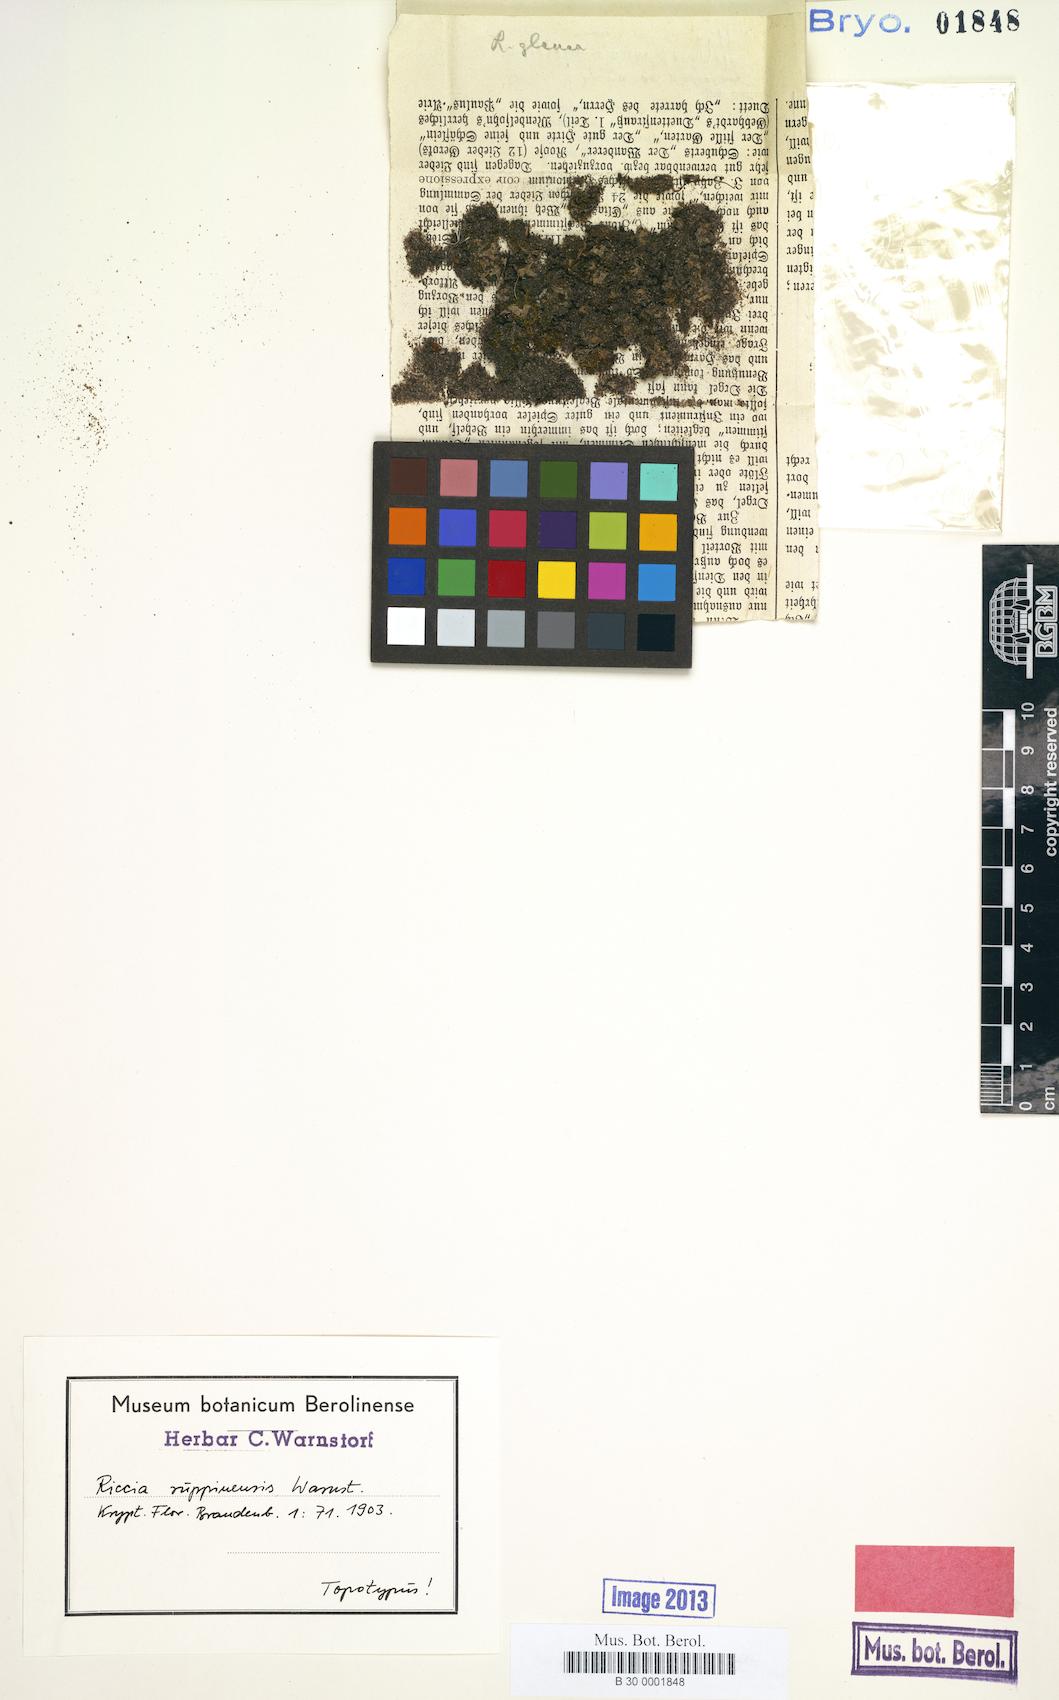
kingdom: Plantae
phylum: Marchantiophyta
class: Marchantiopsida
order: Marchantiales
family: Ricciaceae
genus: Riccia
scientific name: Riccia glauca
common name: Glaucous crystalwort
